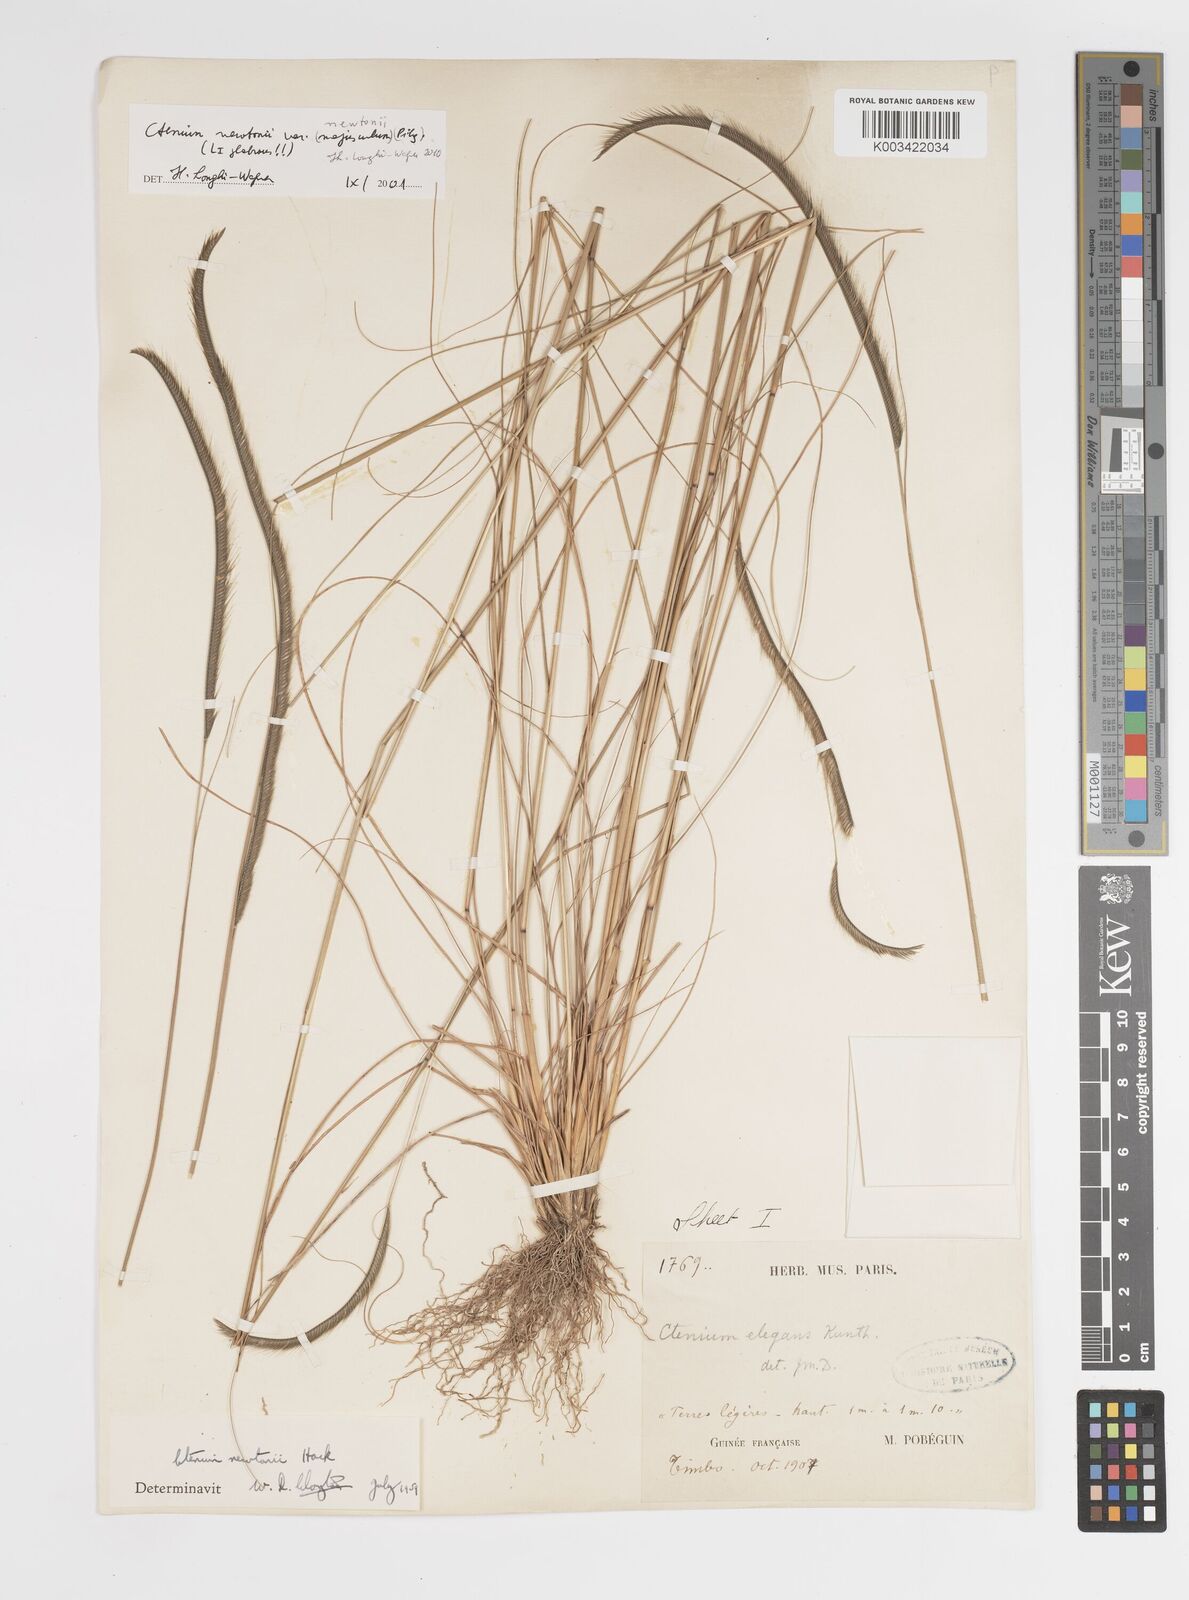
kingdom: Plantae
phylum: Tracheophyta
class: Liliopsida
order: Poales
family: Poaceae
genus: Ctenium
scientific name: Ctenium newtonii
